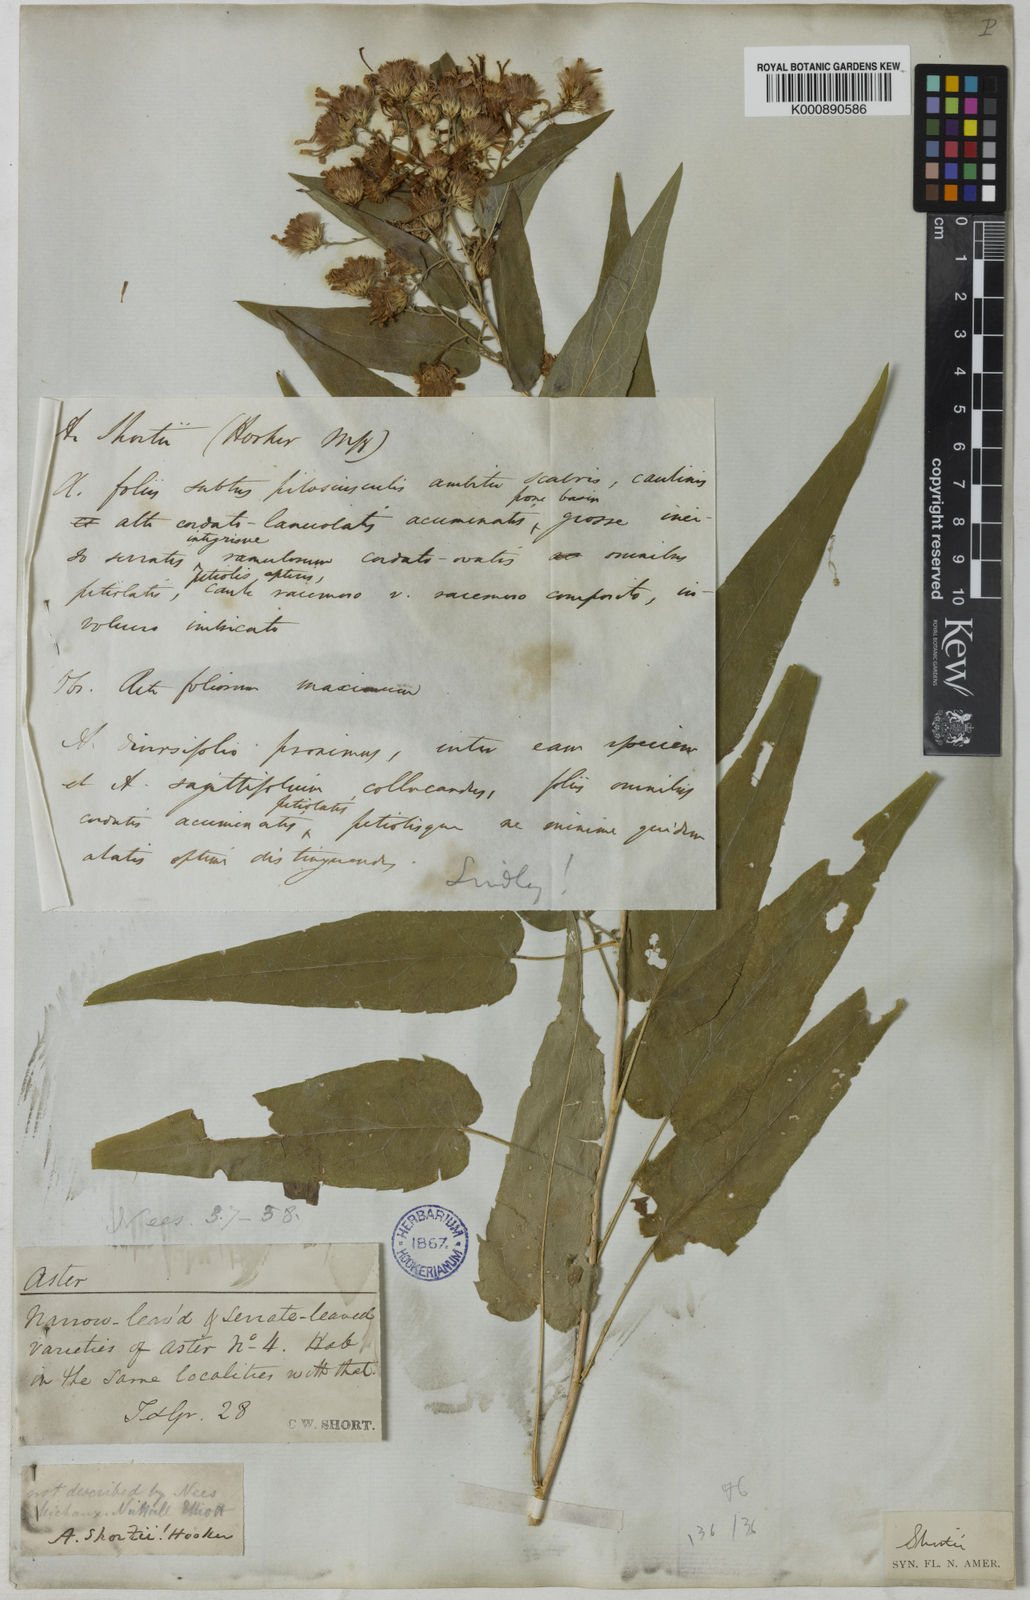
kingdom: Plantae
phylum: Tracheophyta
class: Magnoliopsida
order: Asterales
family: Asteraceae
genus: Aster
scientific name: Aster
